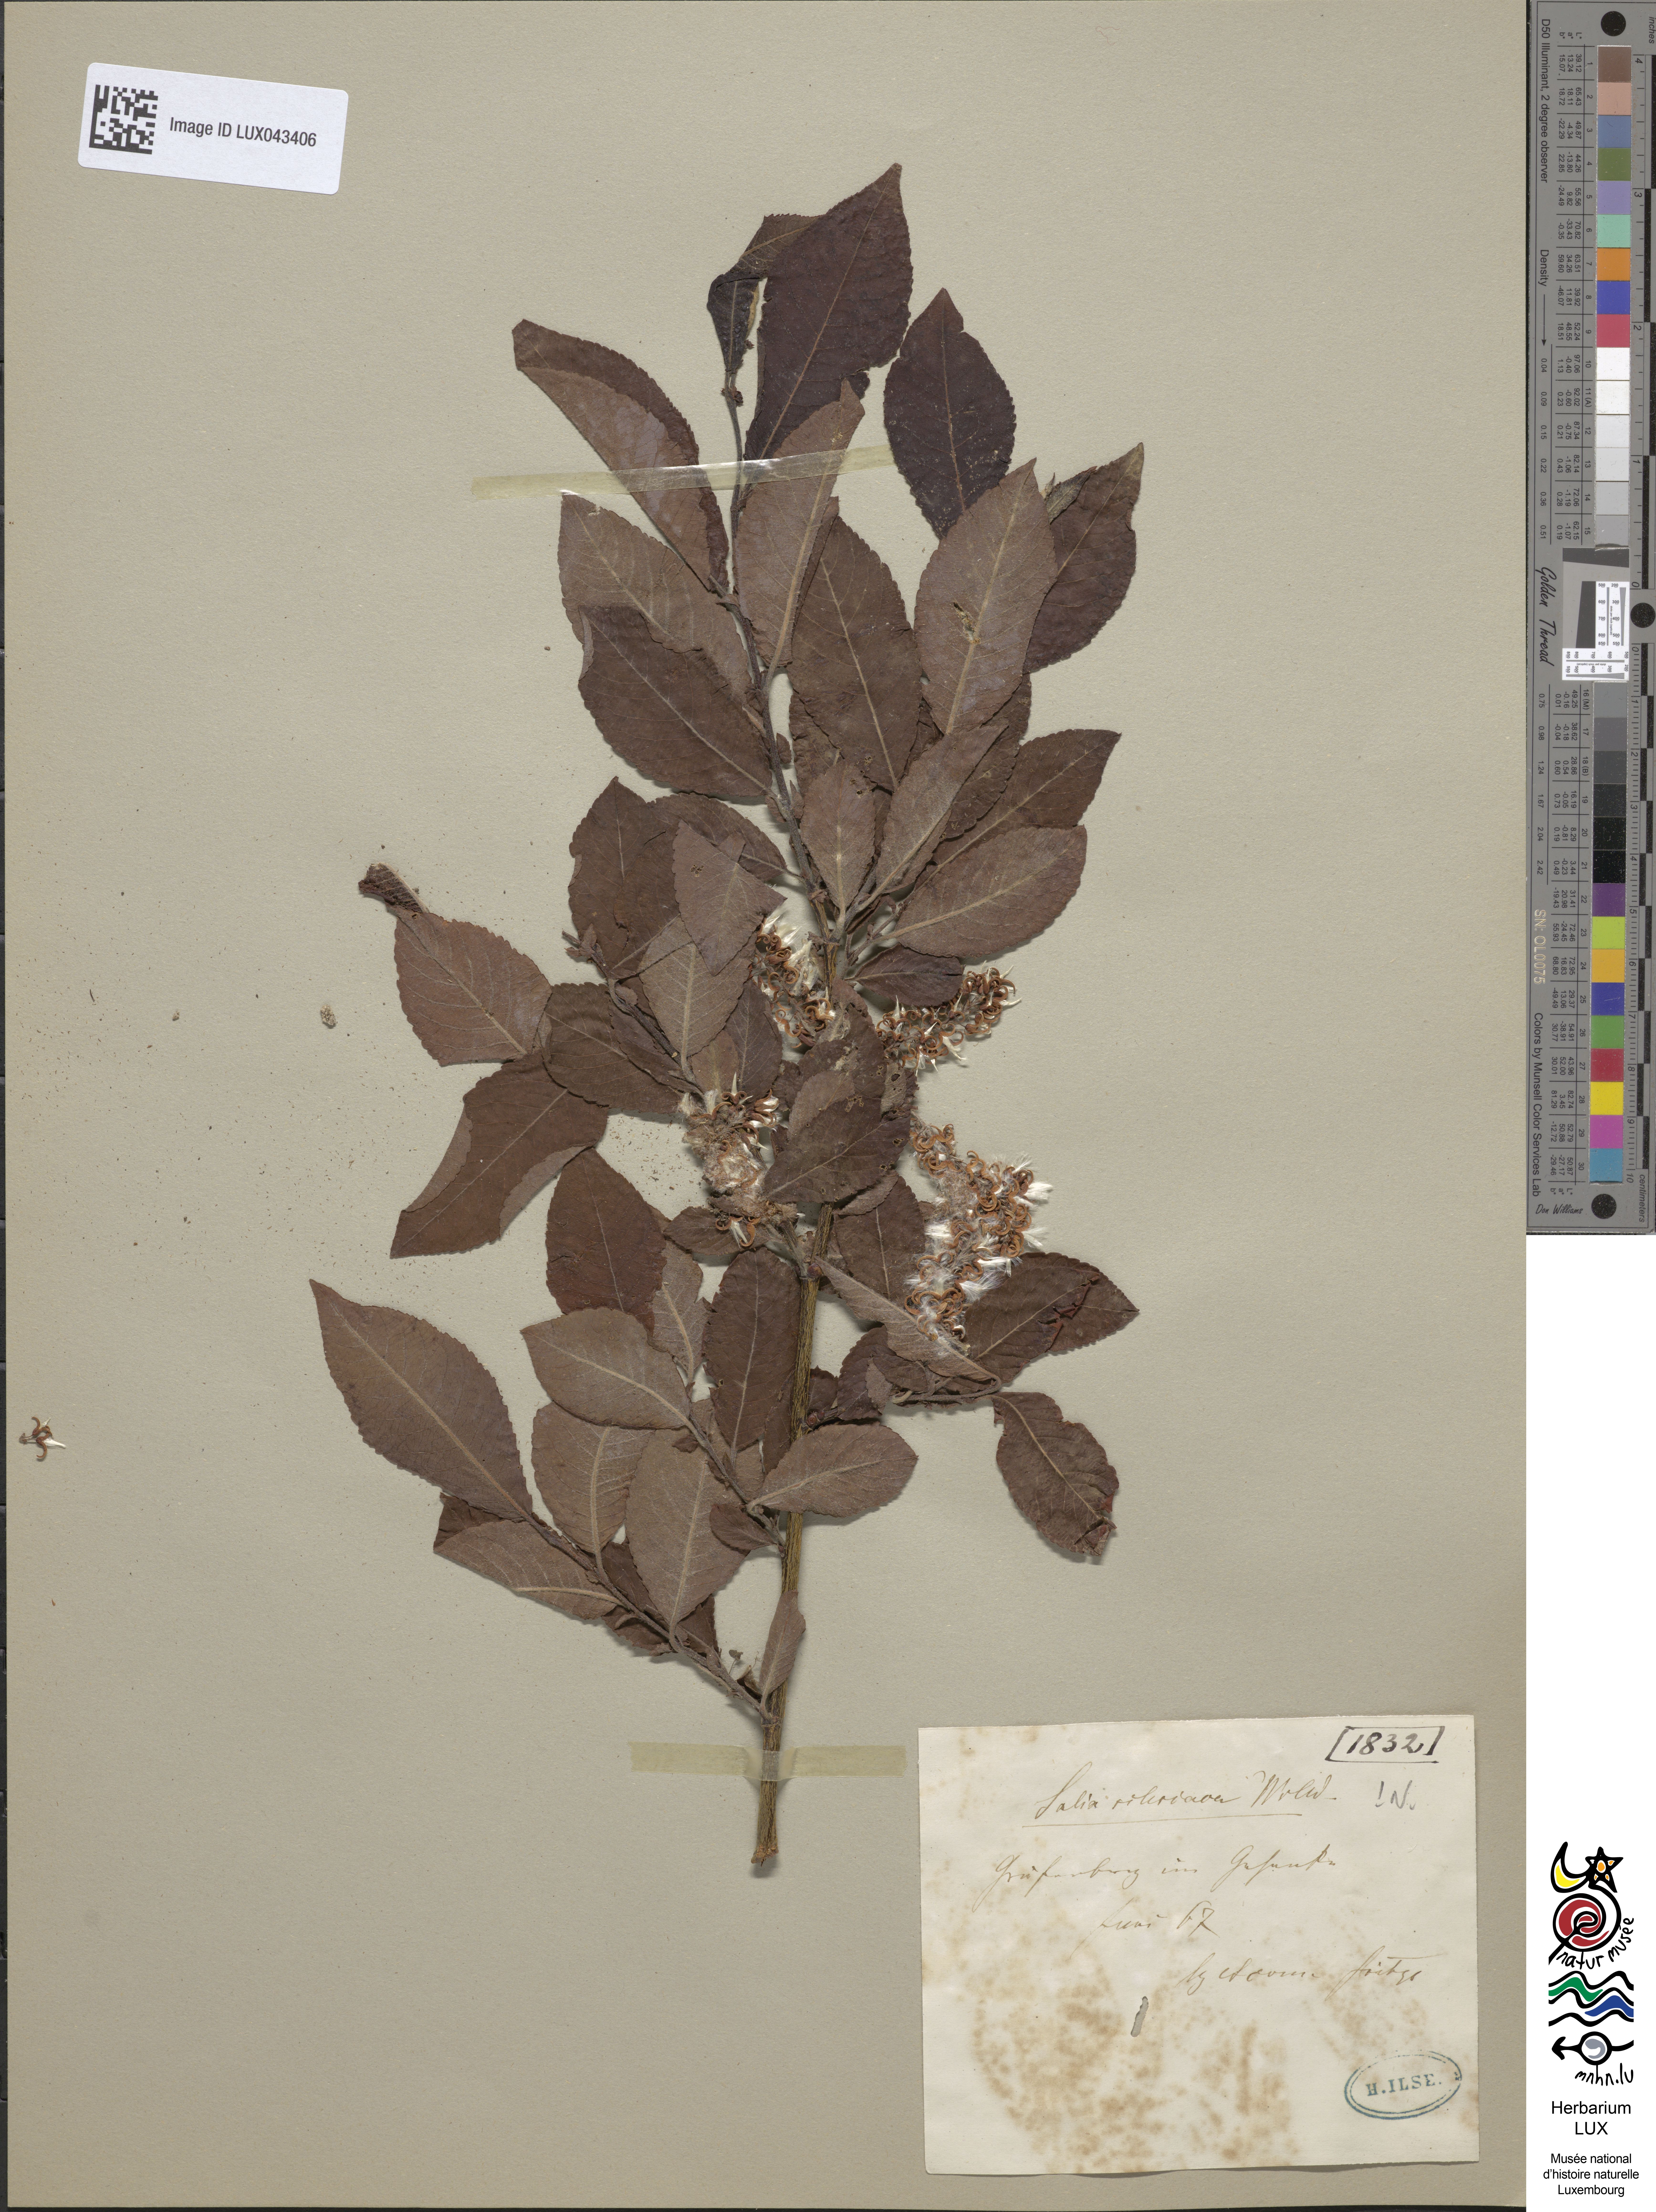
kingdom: Plantae
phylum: Tracheophyta
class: Magnoliopsida
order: Malpighiales
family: Salicaceae
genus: Salix
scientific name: Salix silesiaca
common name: Silesian willow
